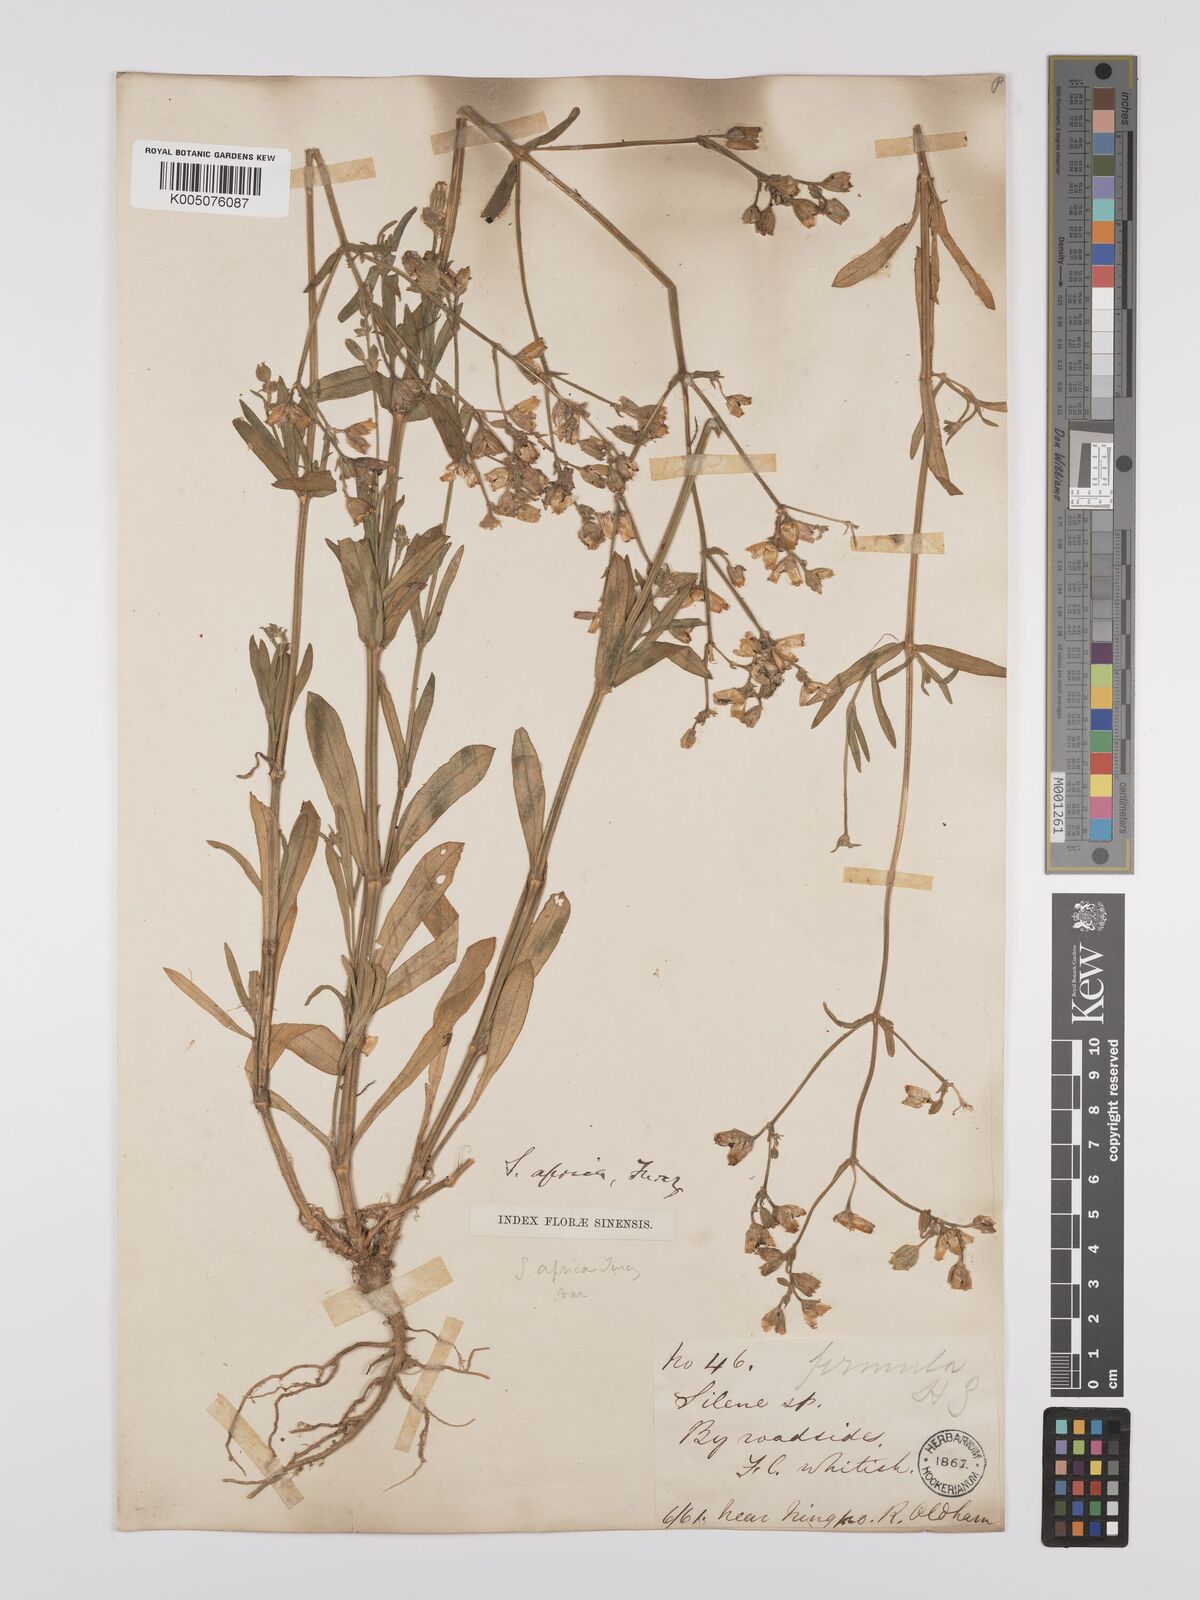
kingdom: Plantae
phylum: Tracheophyta
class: Magnoliopsida
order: Caryophyllales
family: Caryophyllaceae
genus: Silene
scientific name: Silene aprica
